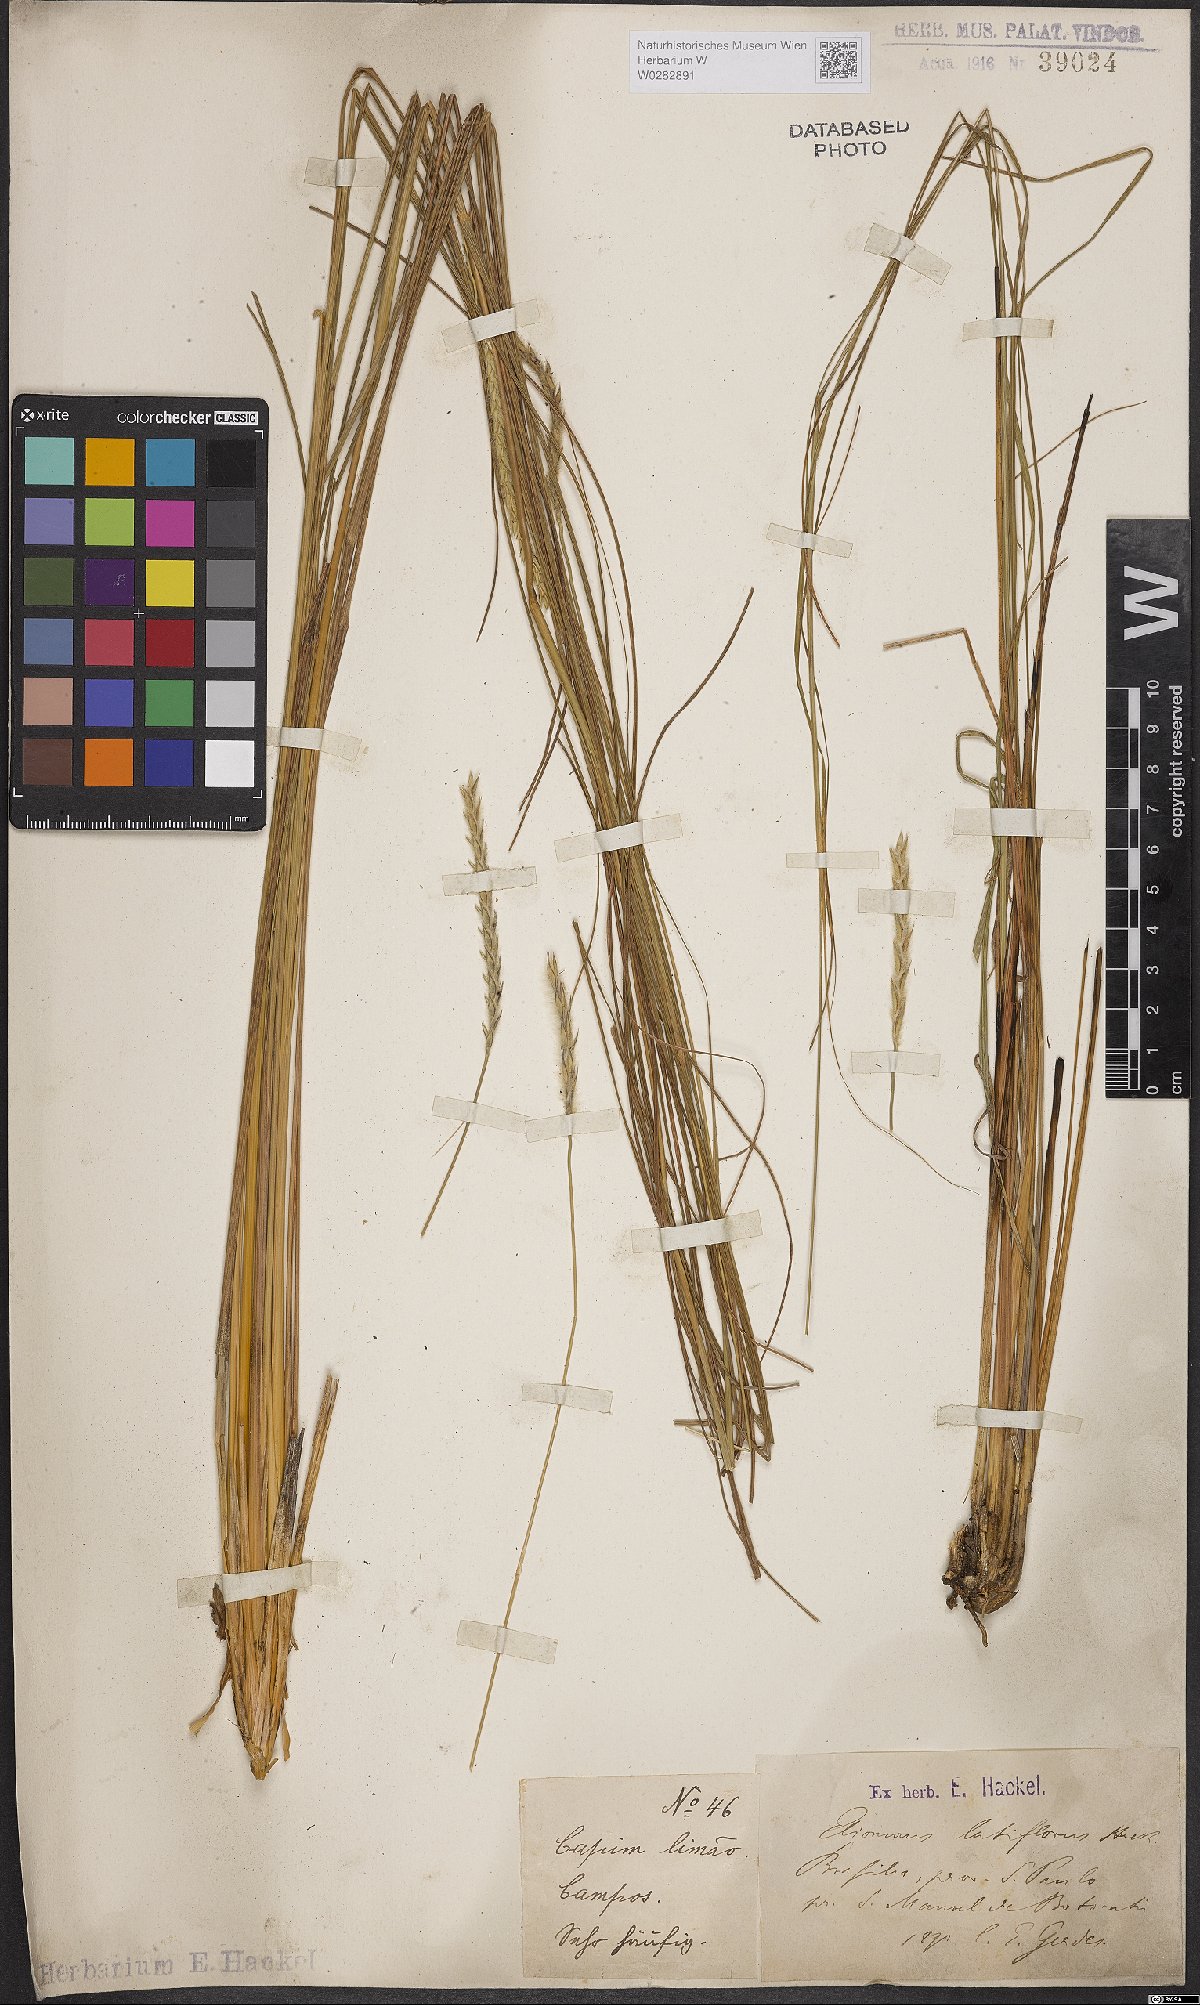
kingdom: Plantae
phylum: Tracheophyta
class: Liliopsida
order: Poales
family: Poaceae
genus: Elionurus
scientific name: Elionurus muticus
